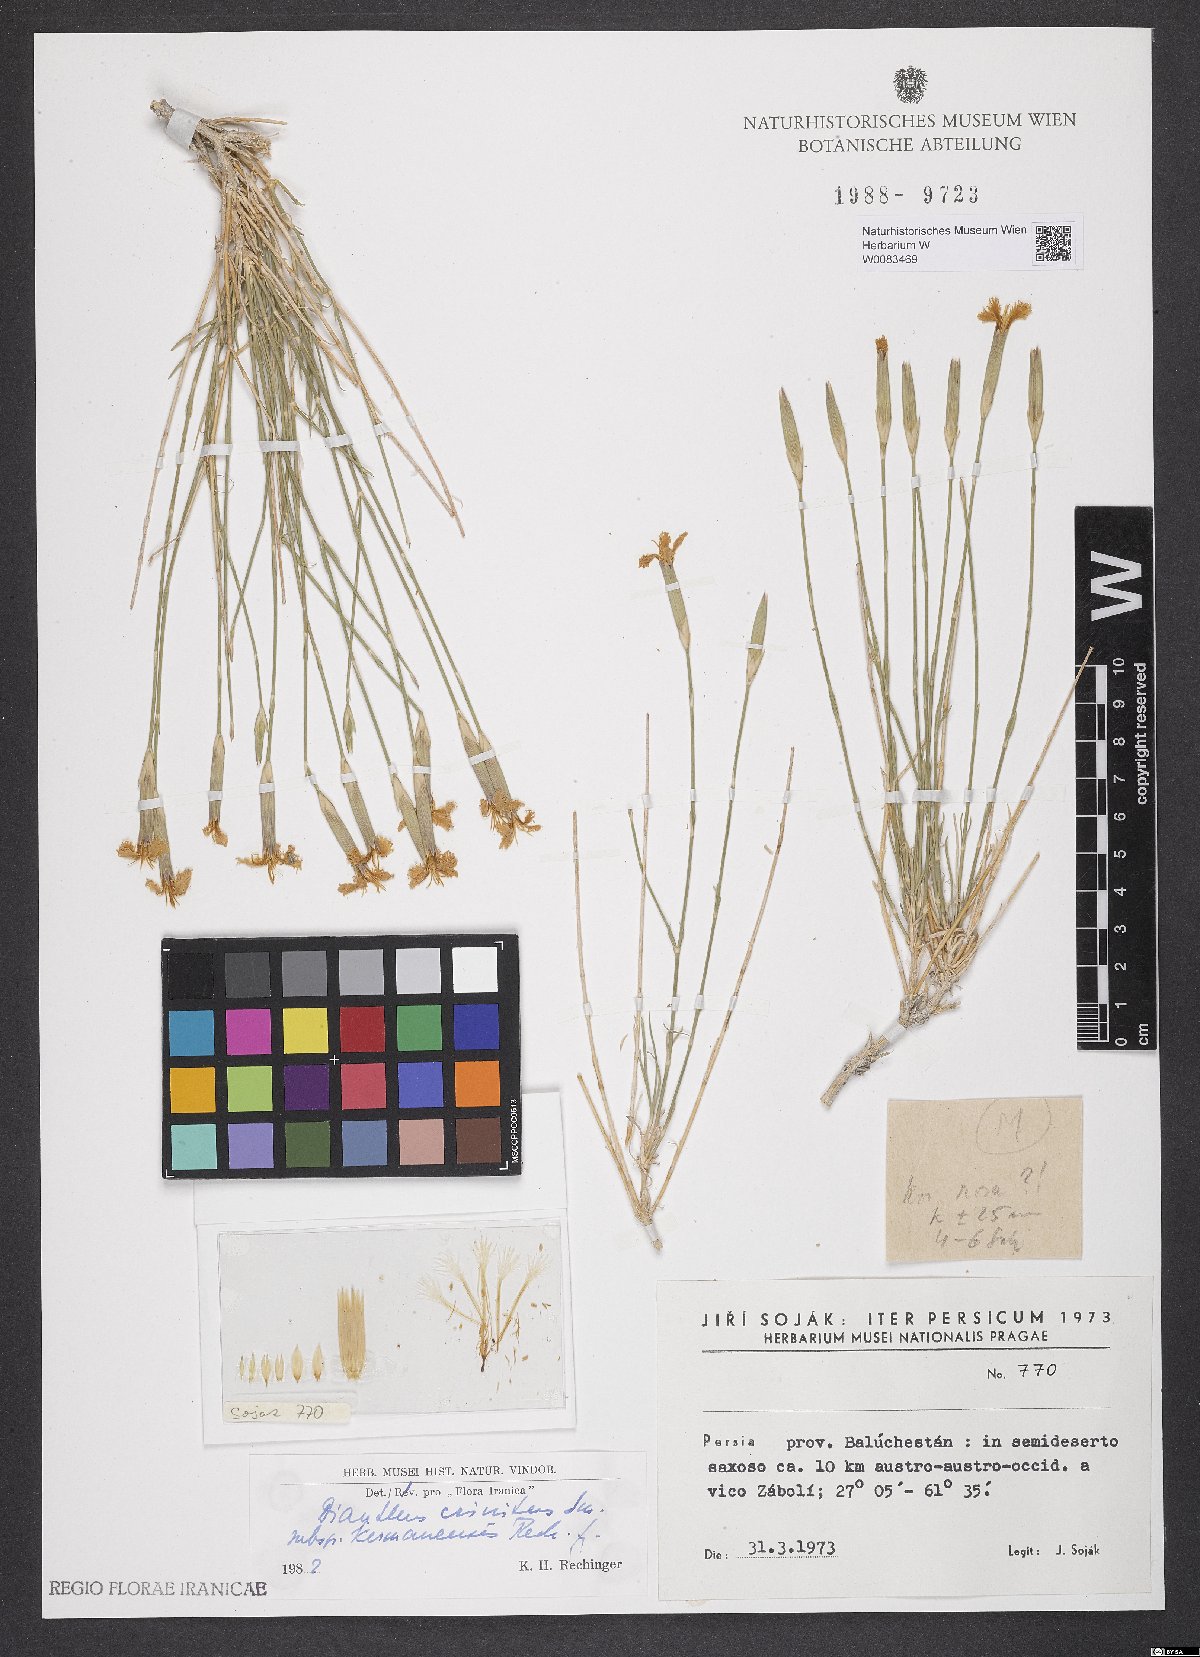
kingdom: Plantae
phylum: Tracheophyta
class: Magnoliopsida
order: Caryophyllales
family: Caryophyllaceae
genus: Dianthus
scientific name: Dianthus crinitus
